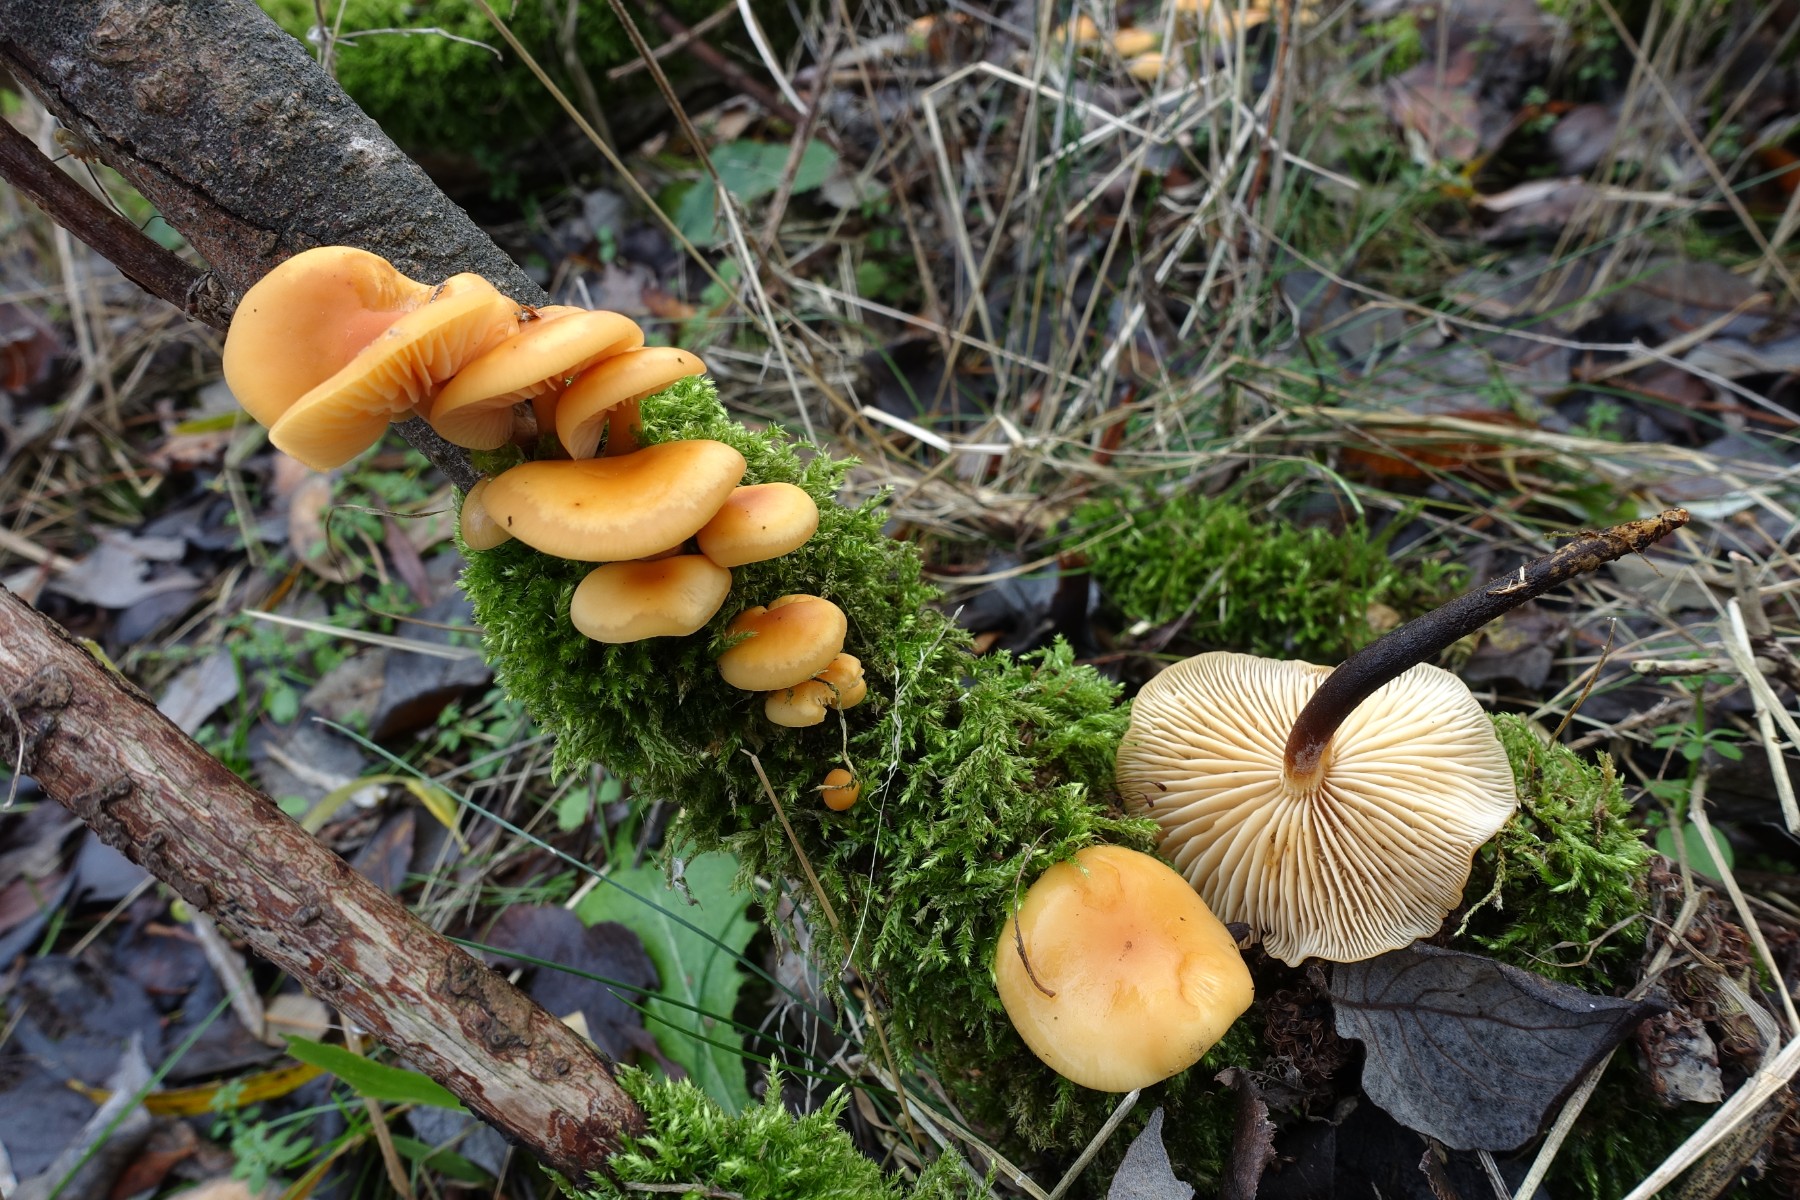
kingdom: Fungi
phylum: Basidiomycota
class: Agaricomycetes
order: Agaricales
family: Physalacriaceae
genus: Flammulina
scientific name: Flammulina elastica
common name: pile-fløjlsfod
